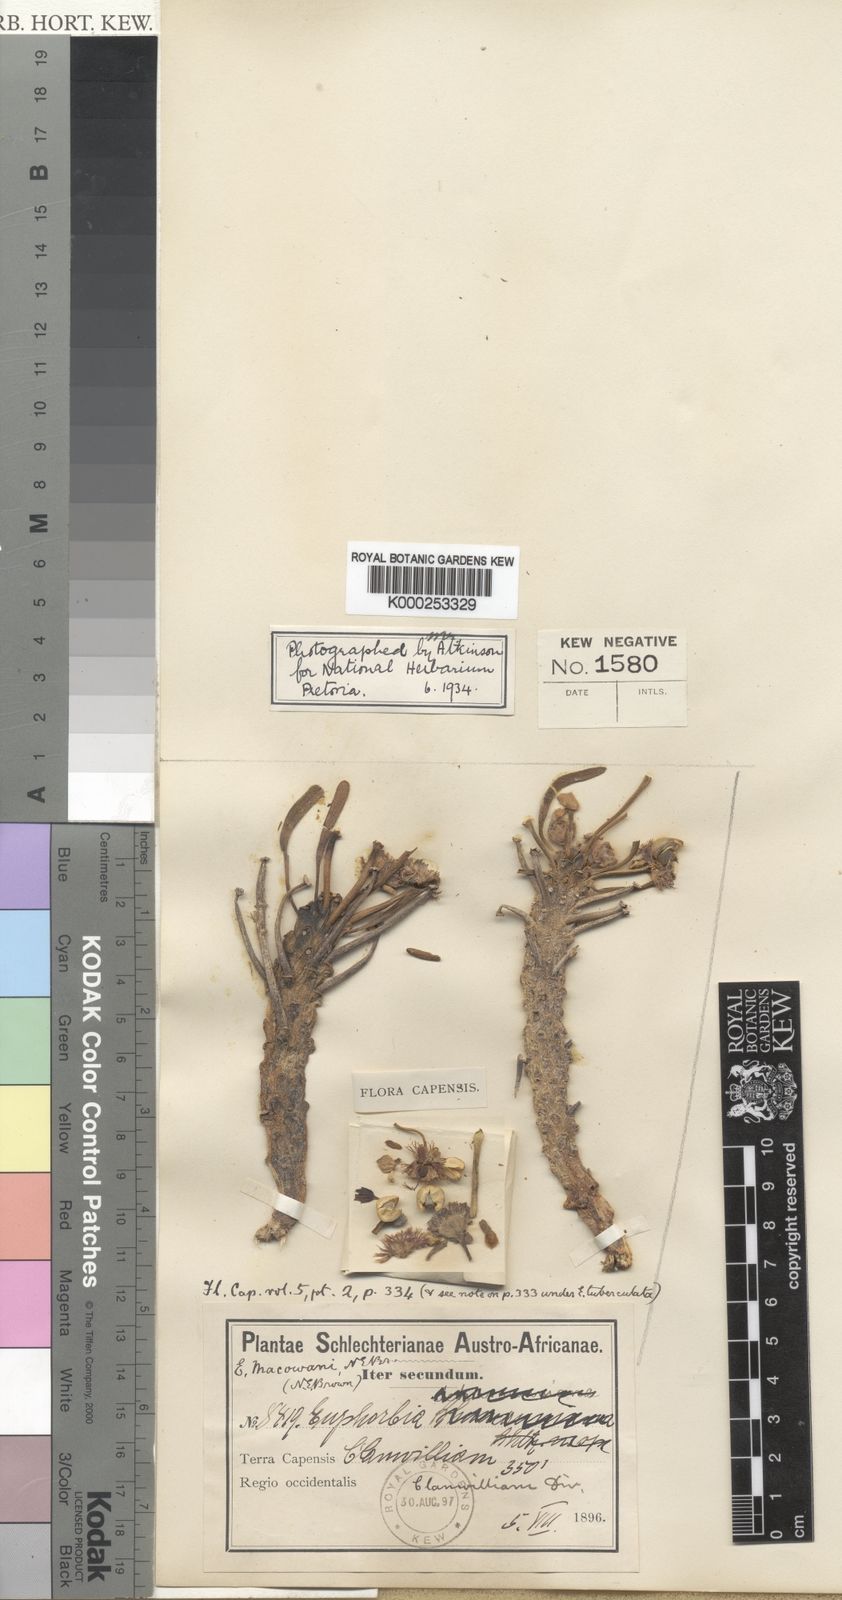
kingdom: Plantae
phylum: Tracheophyta
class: Magnoliopsida
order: Malpighiales
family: Euphorbiaceae
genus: Euphorbia
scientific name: Euphorbia caput-medusae
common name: Medusa's-head
